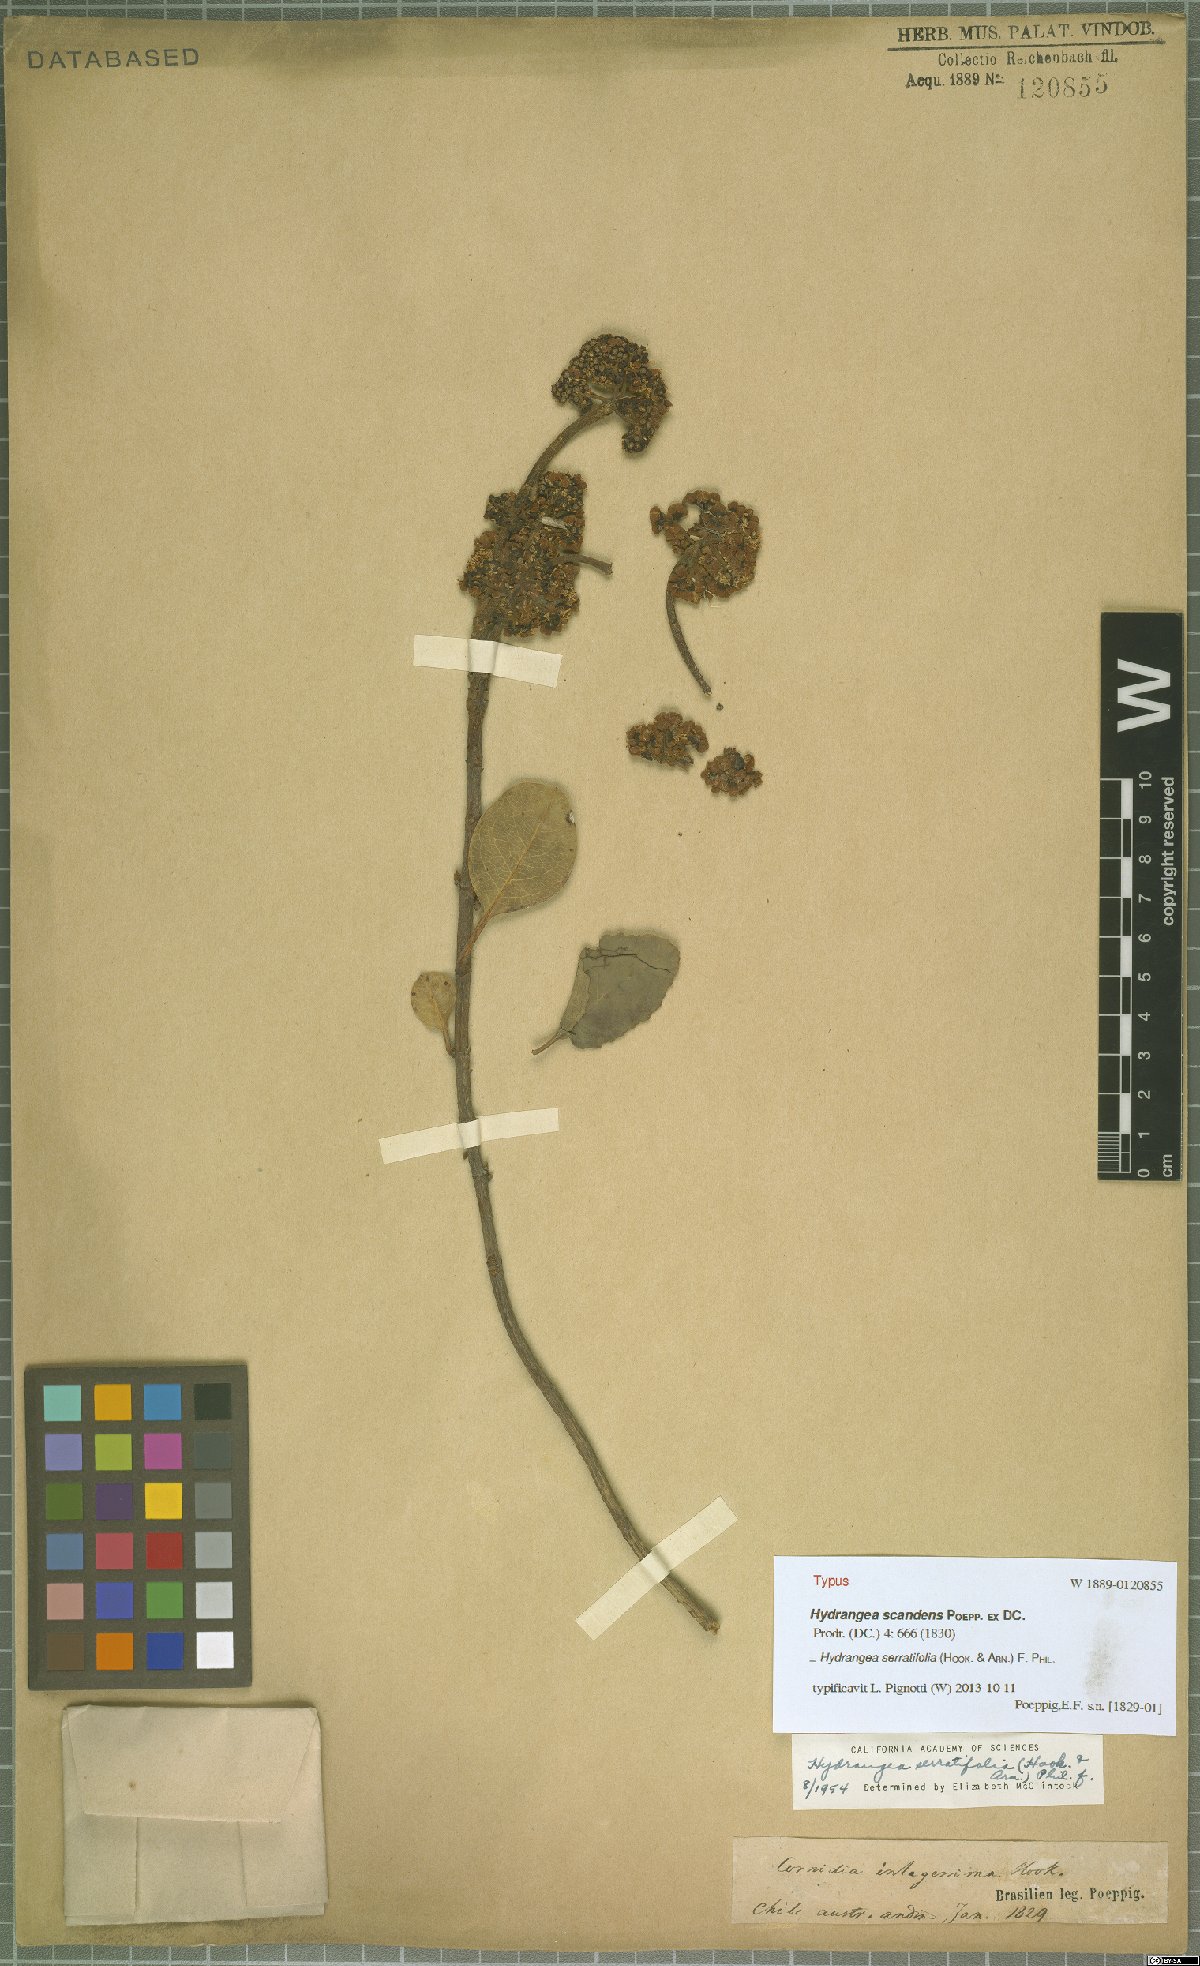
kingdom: Plantae
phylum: Tracheophyta
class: Magnoliopsida
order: Cornales
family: Hydrangeaceae
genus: Hydrangea
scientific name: Hydrangea serratifolia
